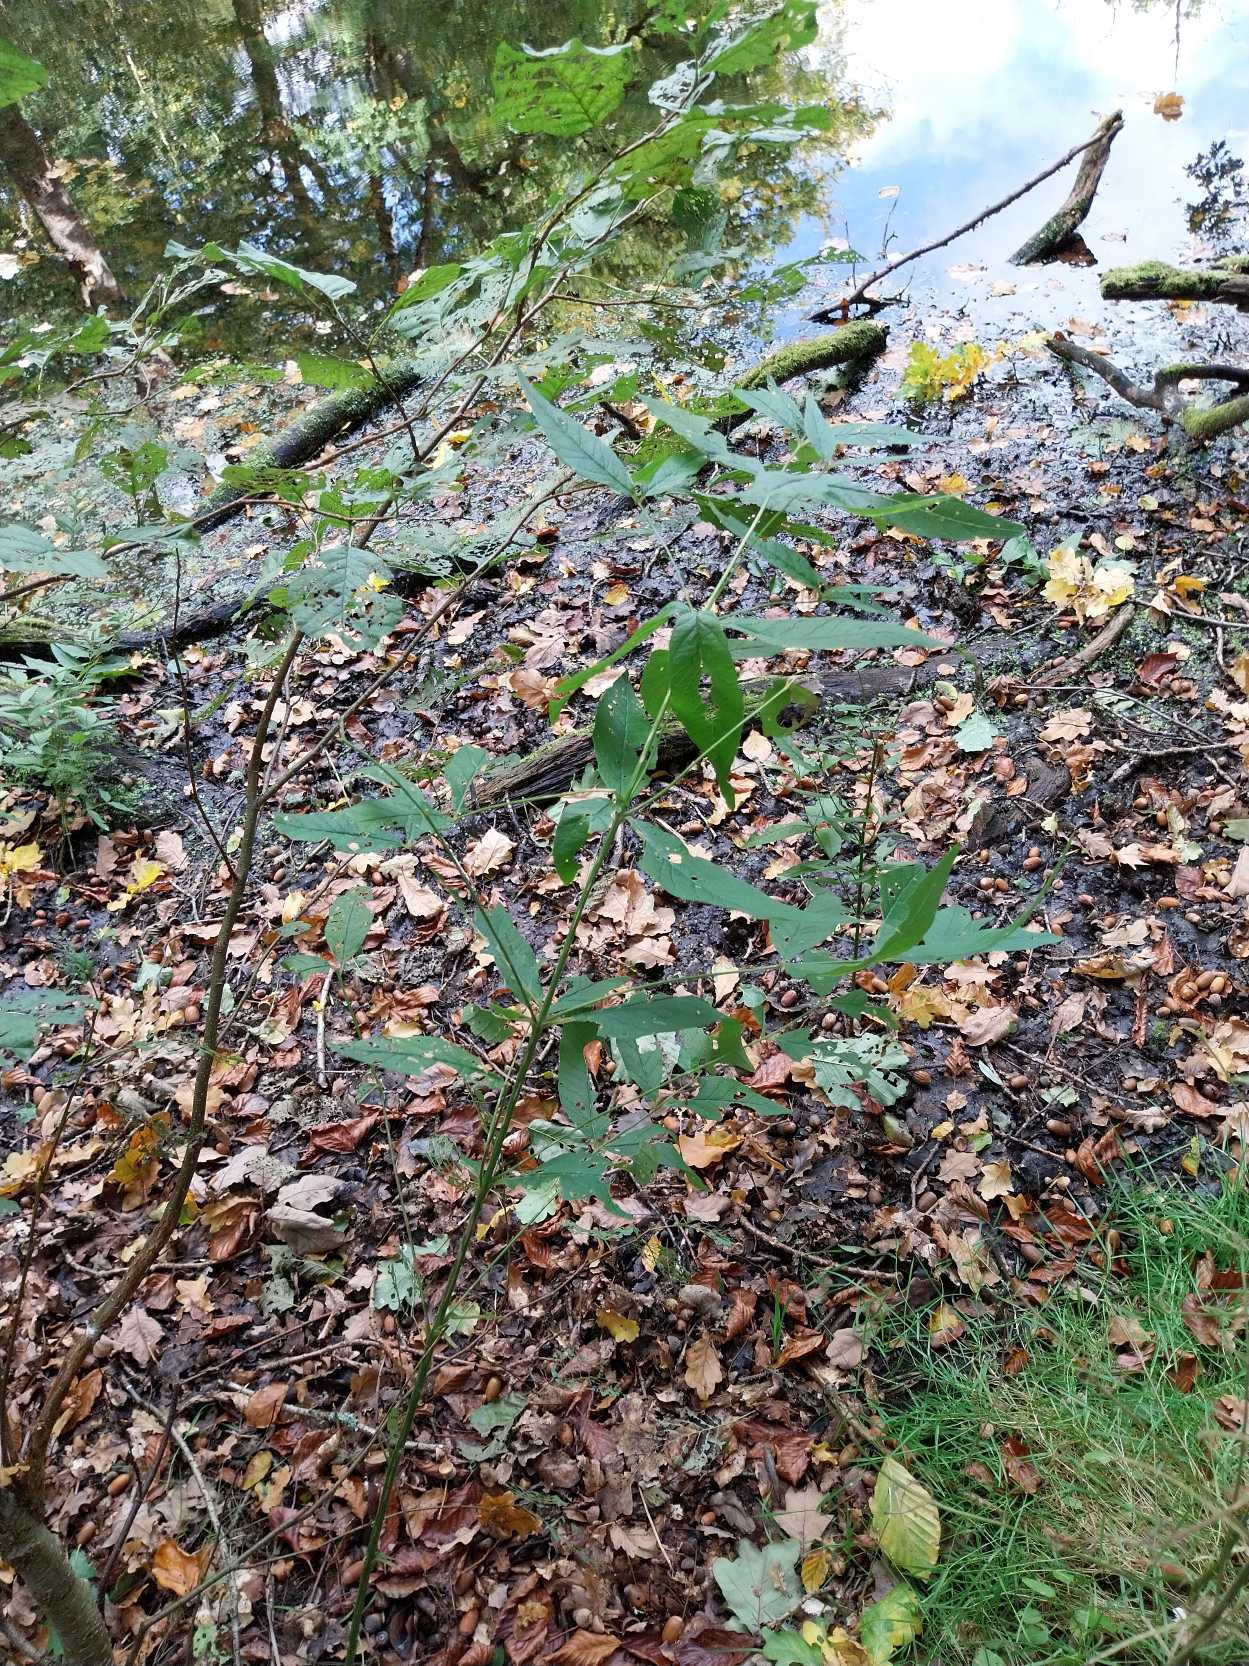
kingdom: Plantae
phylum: Tracheophyta
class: Magnoliopsida
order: Ericales
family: Primulaceae
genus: Lysimachia
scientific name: Lysimachia vulgaris
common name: Almindelig fredløs
